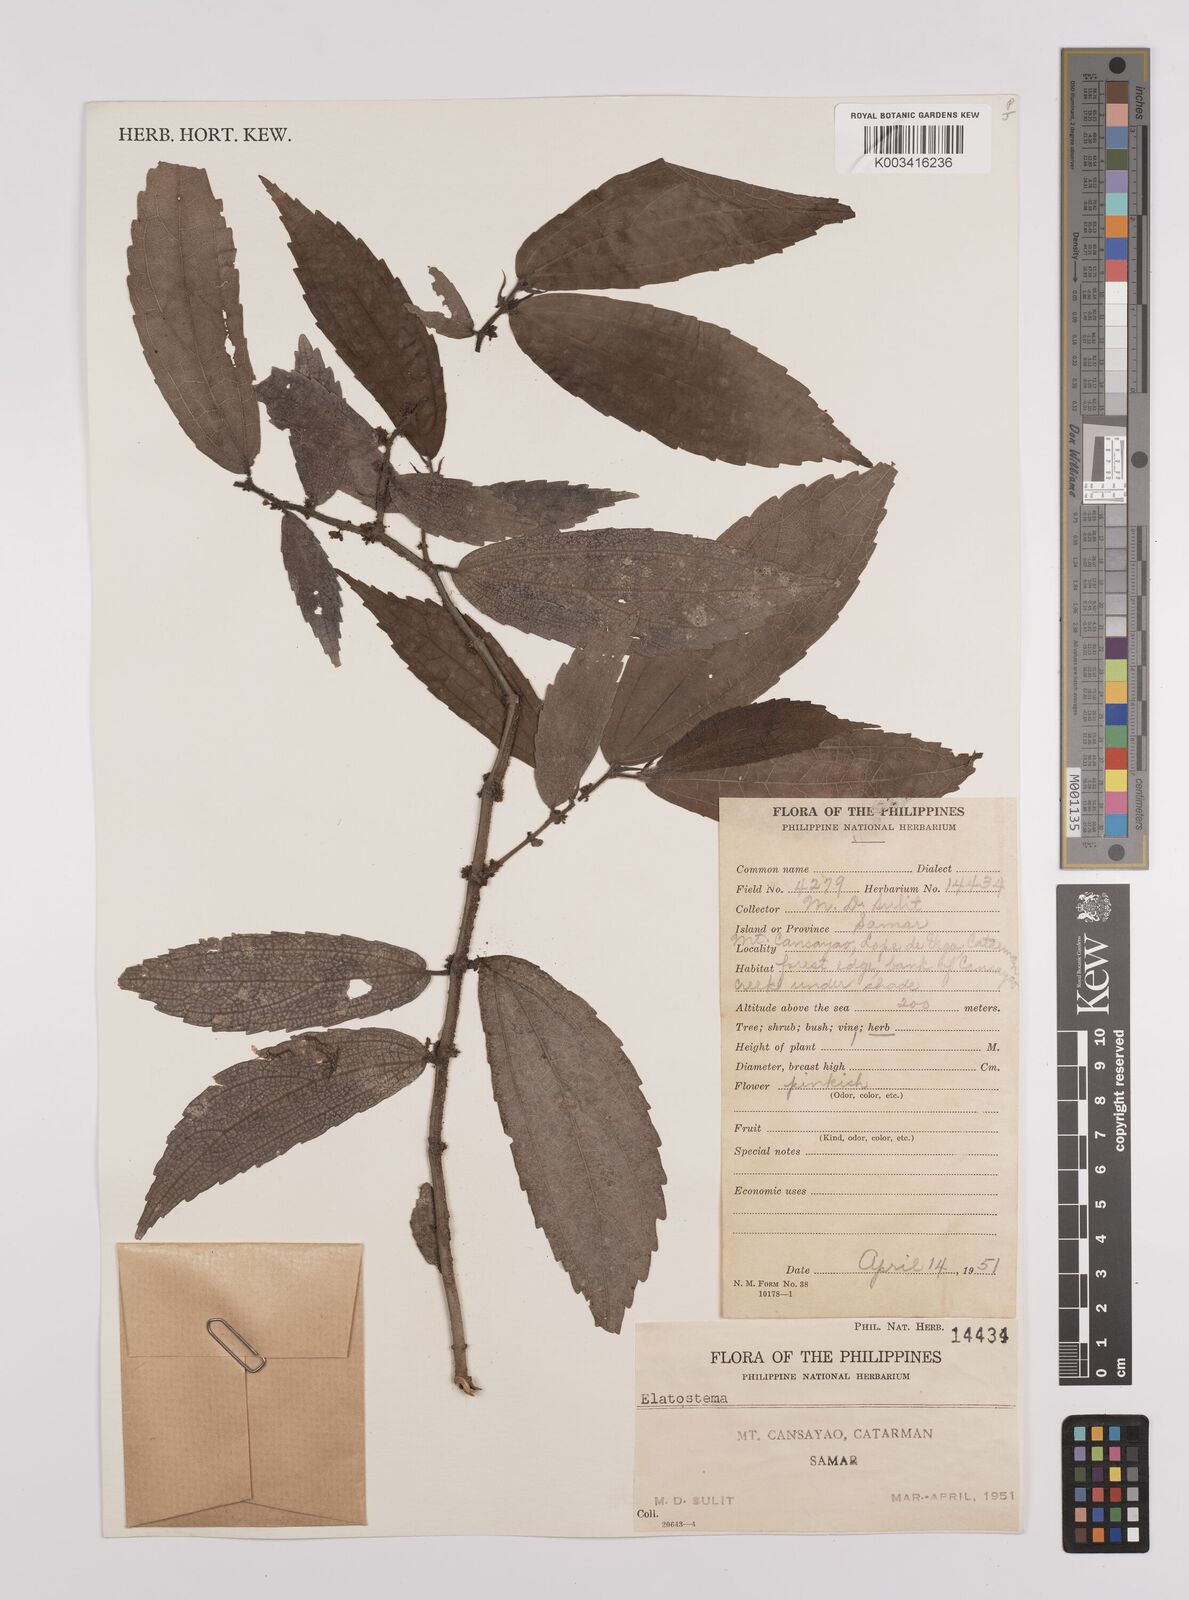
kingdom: Plantae
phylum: Tracheophyta
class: Magnoliopsida
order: Rosales
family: Urticaceae
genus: Elatostema
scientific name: Elatostema
